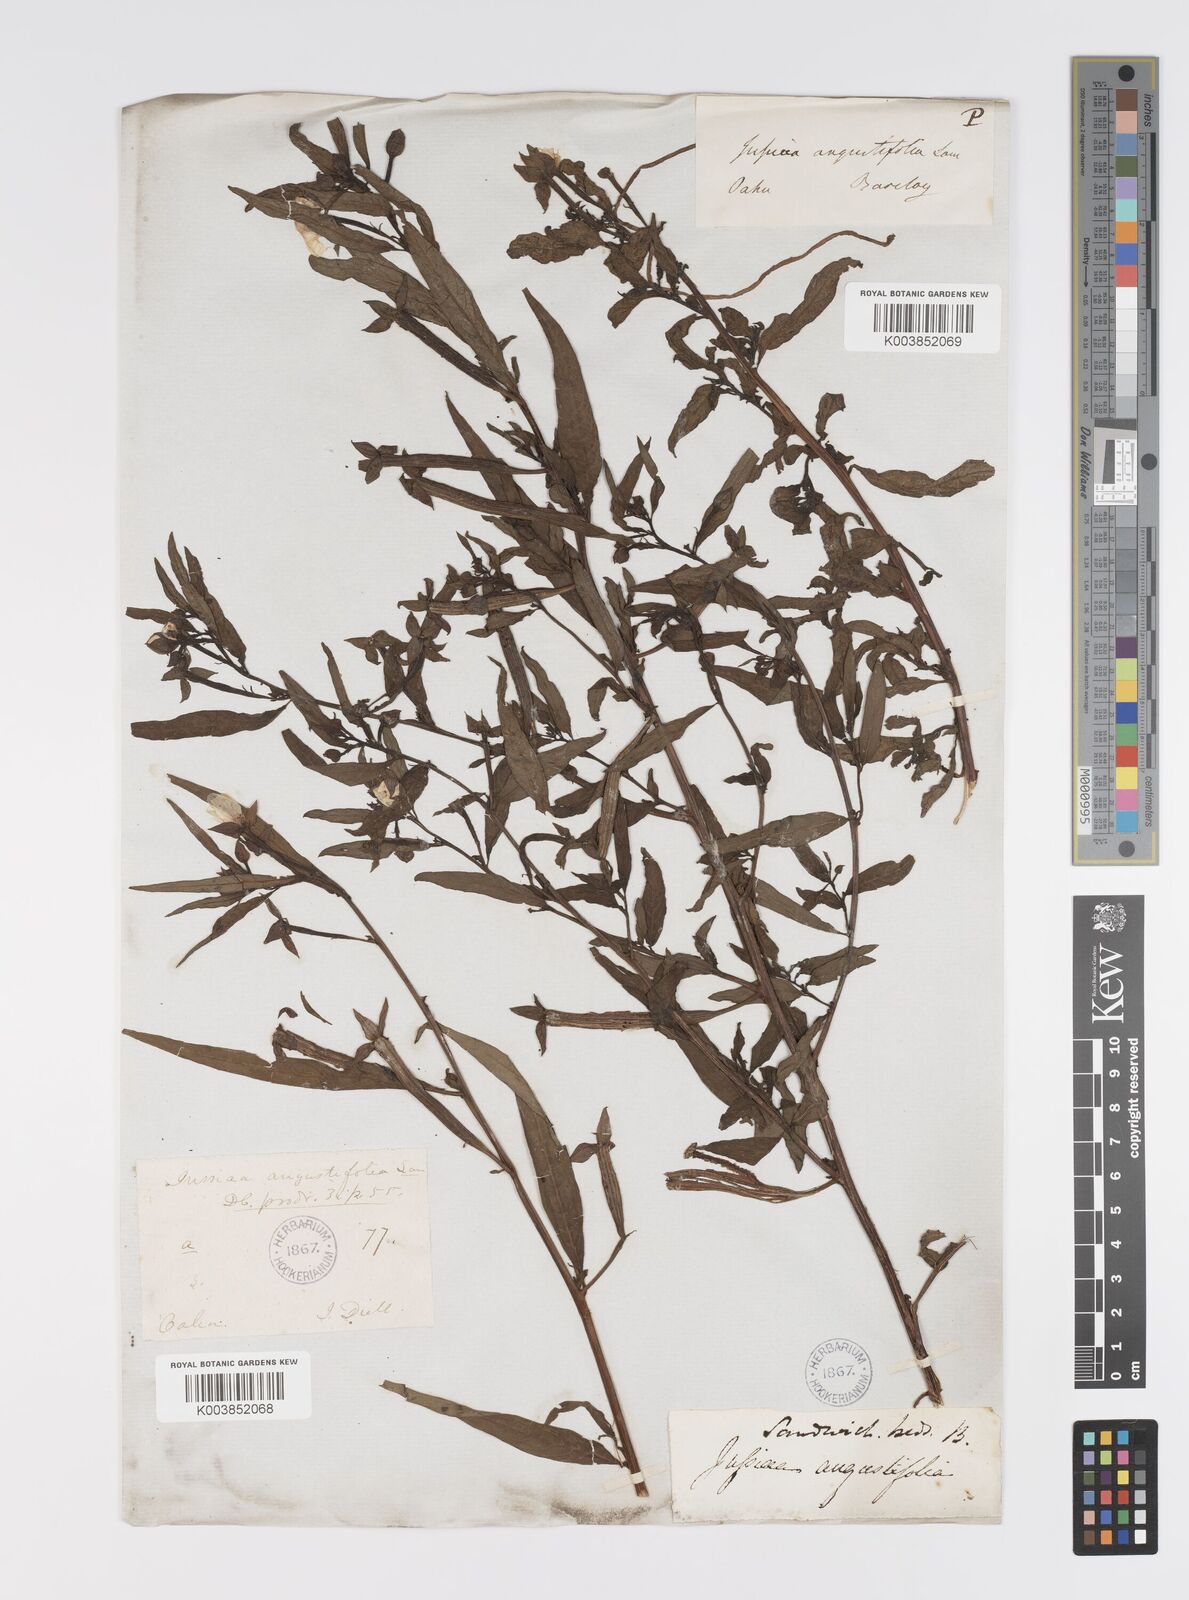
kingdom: Plantae
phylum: Tracheophyta
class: Magnoliopsida
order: Myrtales
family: Onagraceae
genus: Ludwigia
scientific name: Ludwigia octovalvis
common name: Water-primrose
